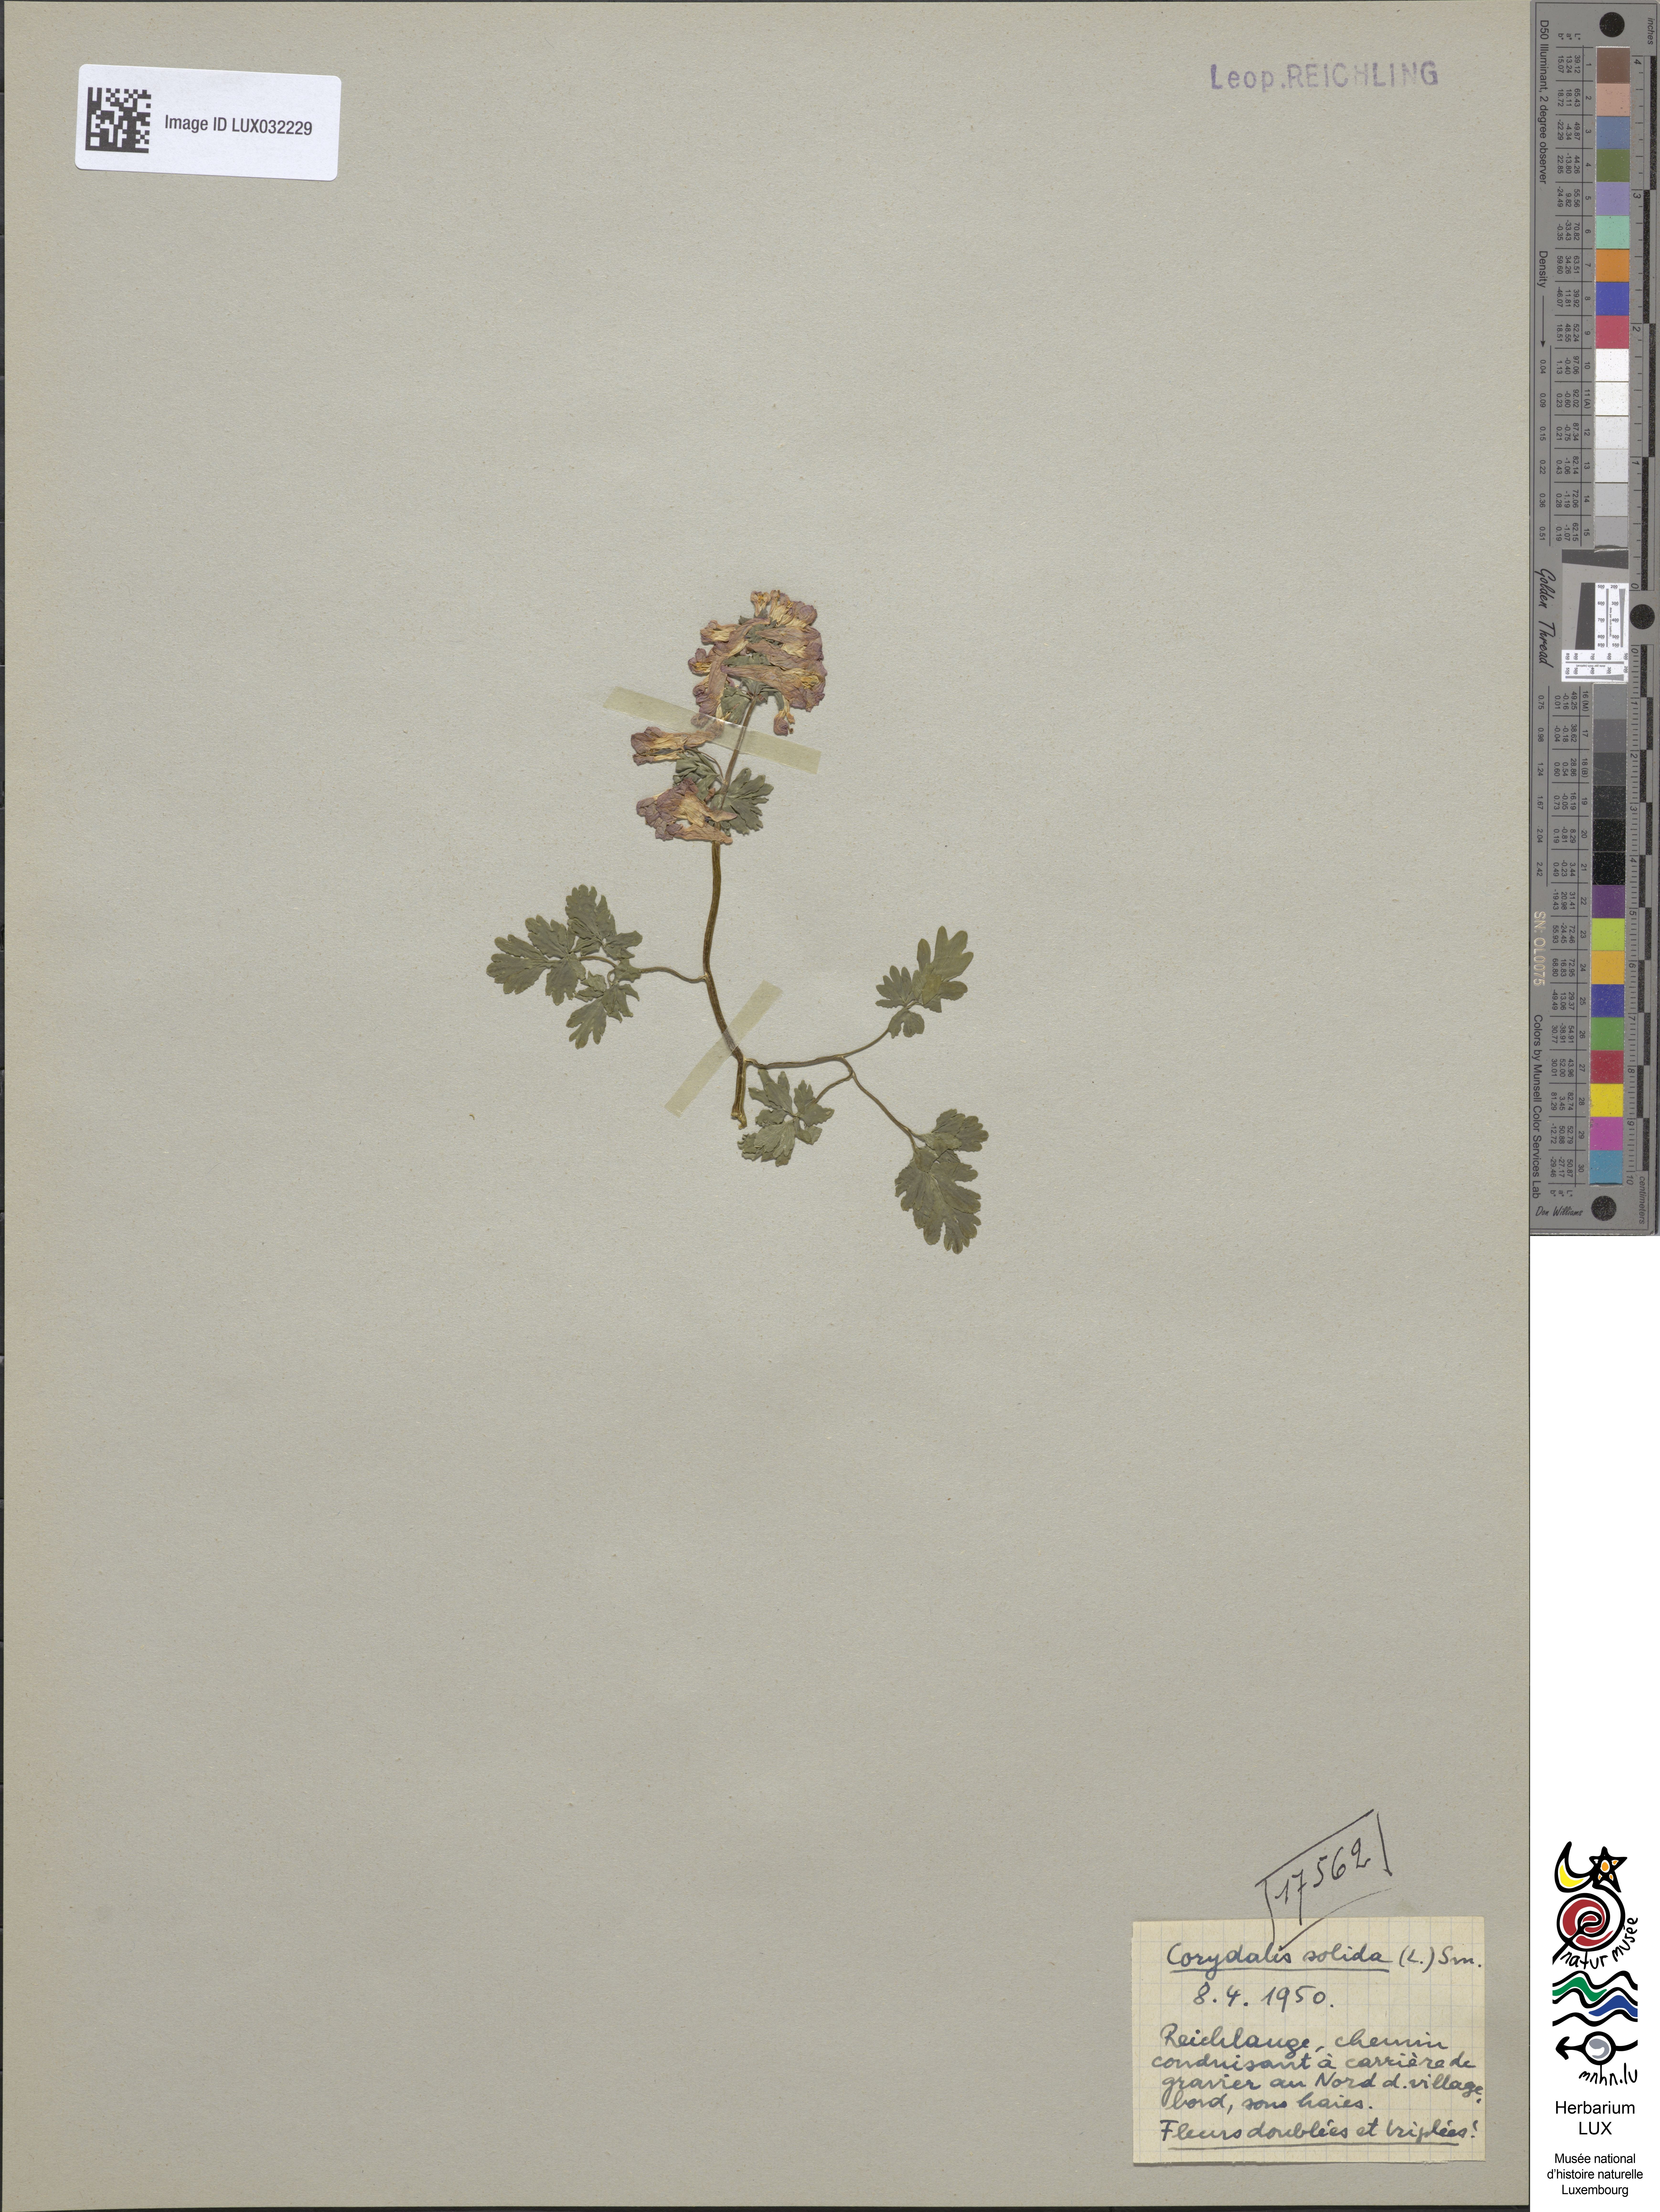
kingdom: Plantae
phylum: Tracheophyta
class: Magnoliopsida
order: Ranunculales
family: Papaveraceae
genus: Corydalis
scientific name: Corydalis solida
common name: Bird-in-a-bush
